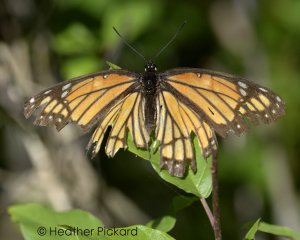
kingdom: Animalia
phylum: Arthropoda
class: Insecta
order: Lepidoptera
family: Nymphalidae
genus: Limenitis
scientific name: Limenitis archippus
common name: Viceroy
